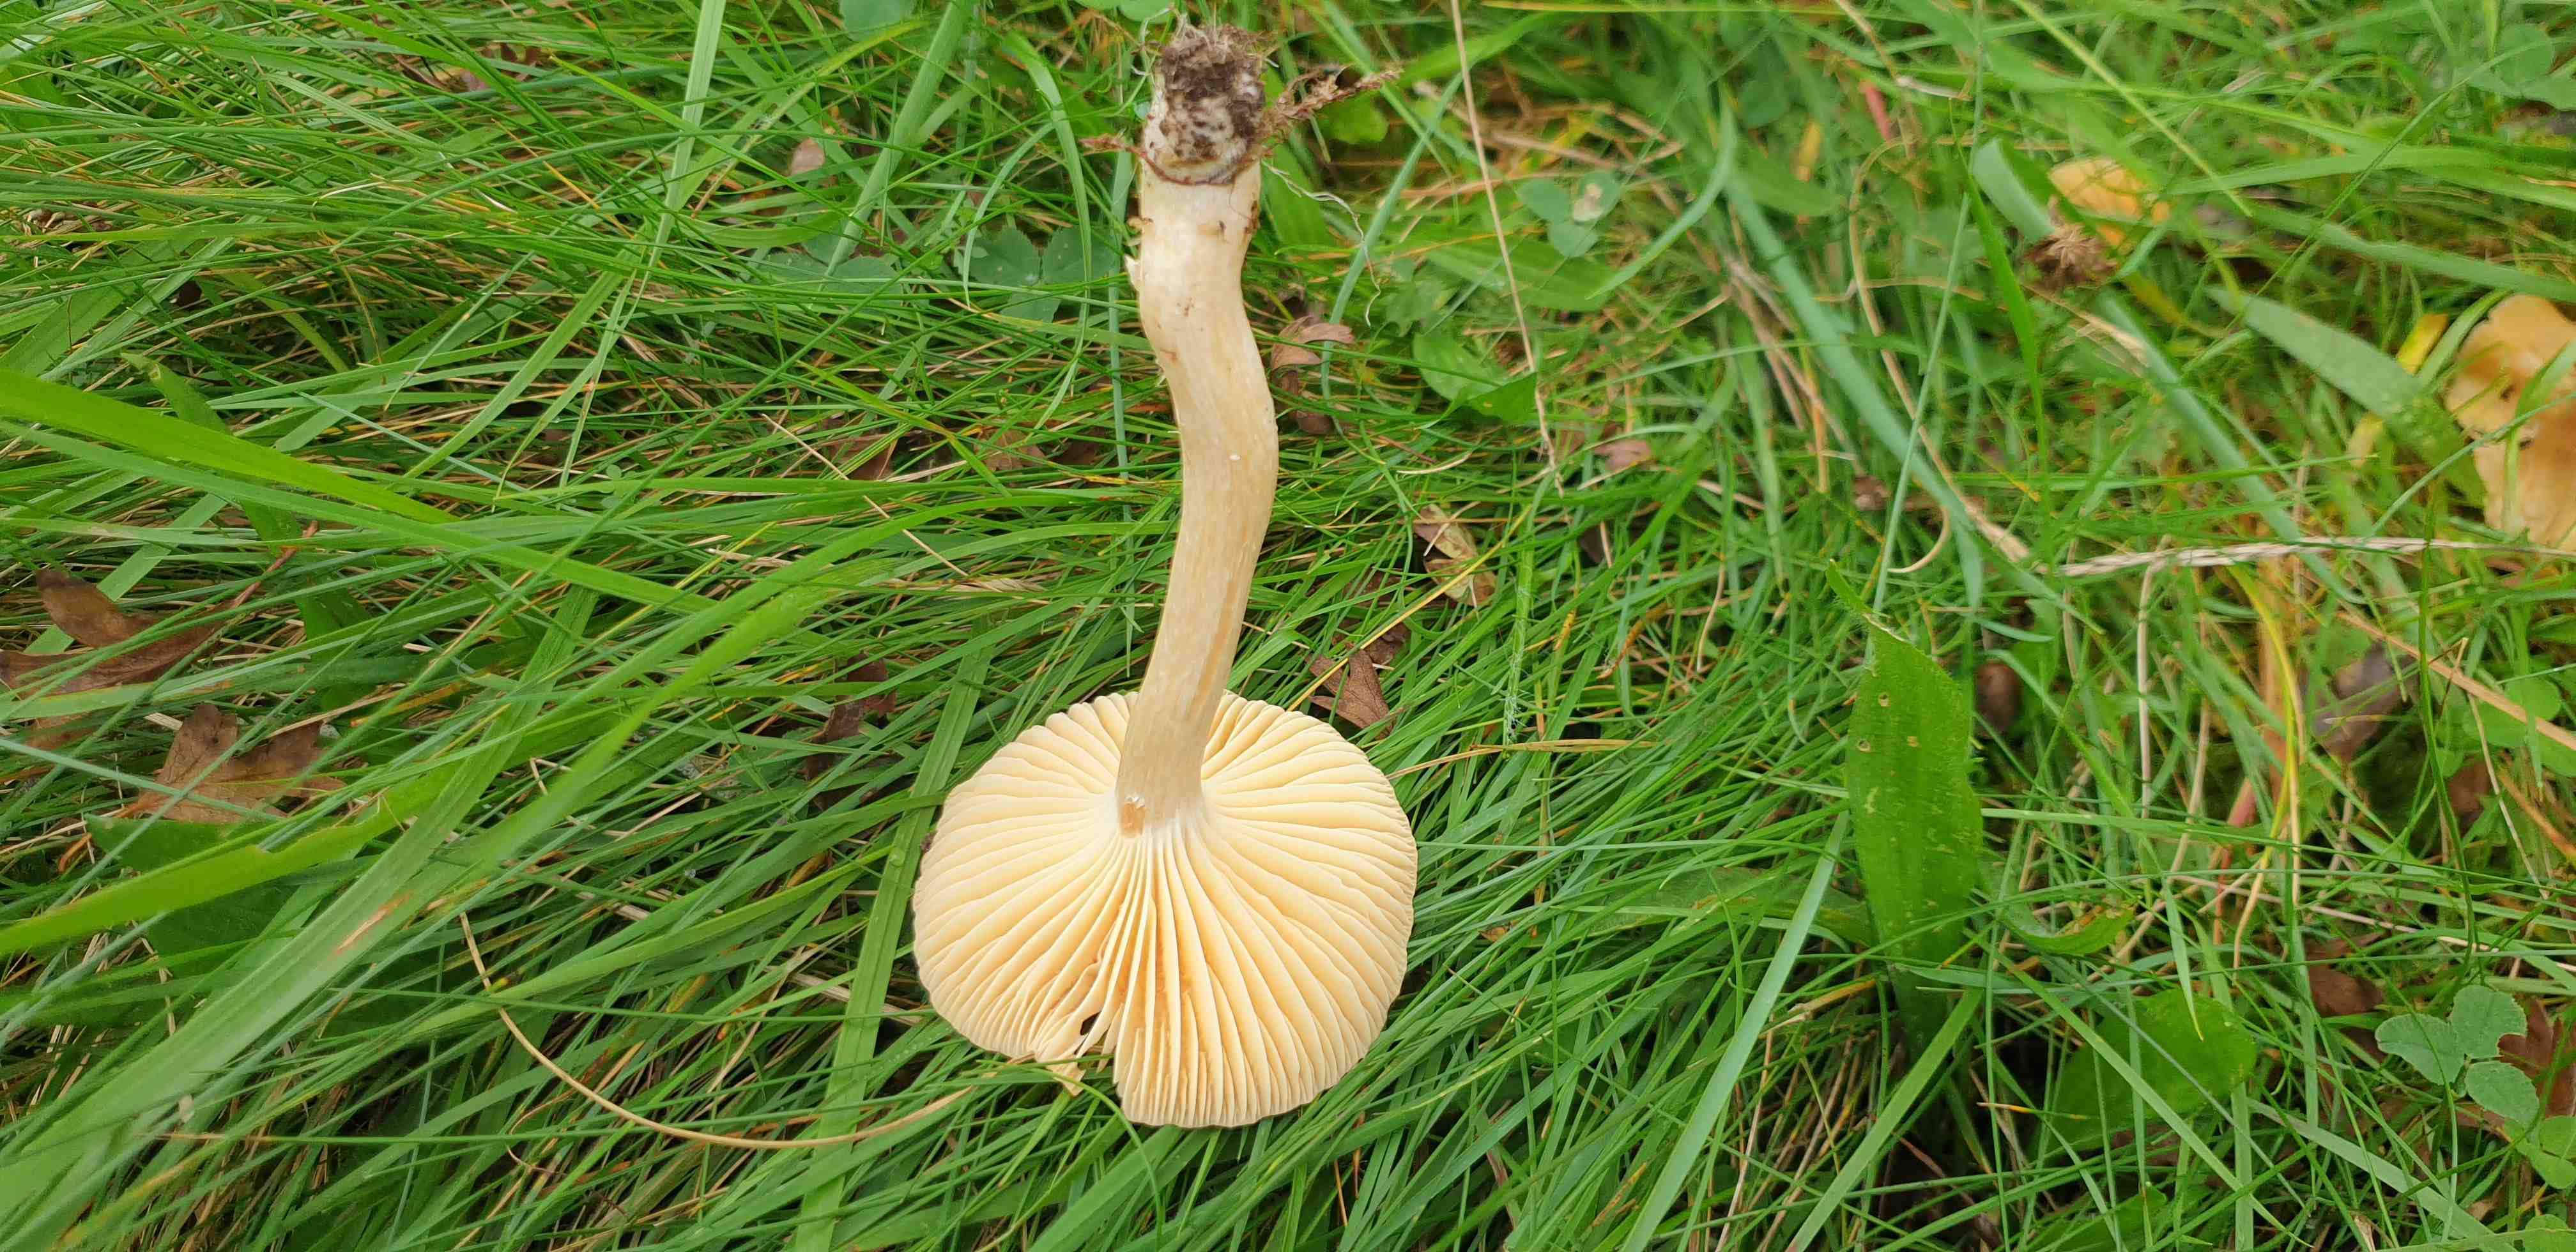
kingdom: Fungi
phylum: Basidiomycota
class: Agaricomycetes
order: Agaricales
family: Hygrophoraceae
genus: Cuphophyllus
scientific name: Cuphophyllus pratensis
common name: eng-vokshat
